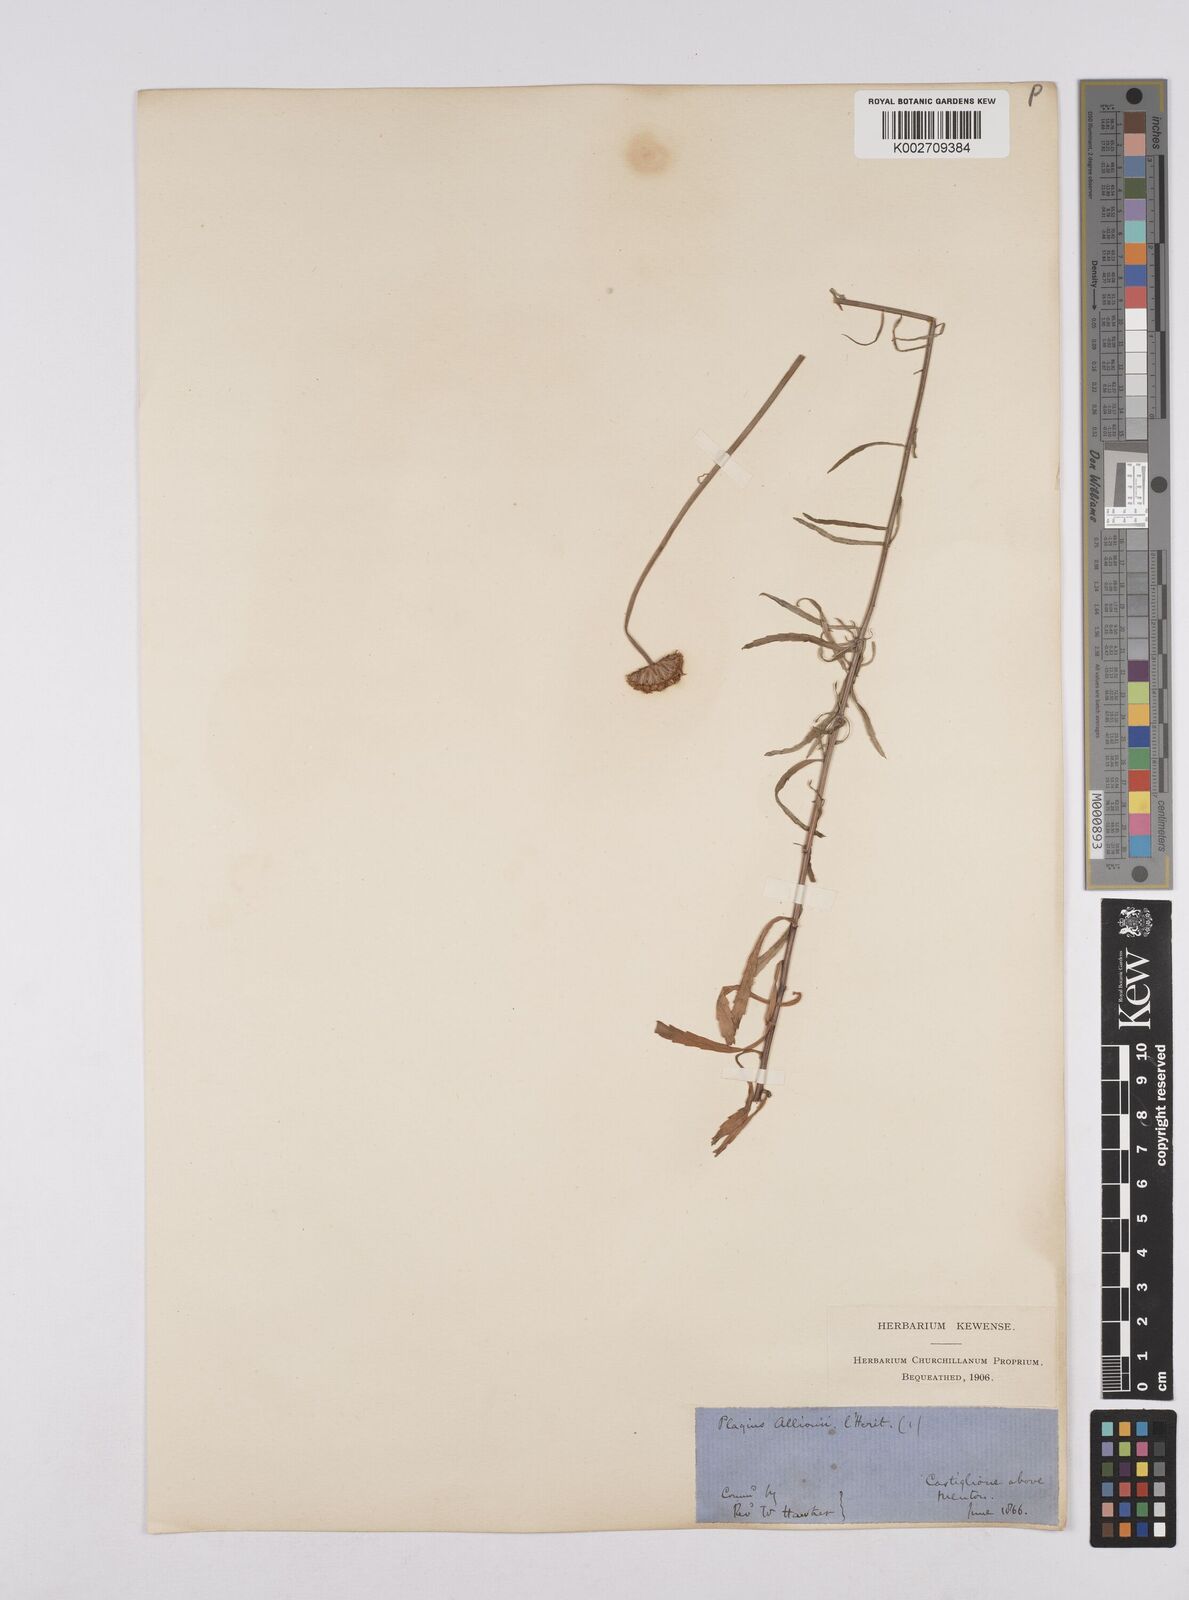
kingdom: Plantae
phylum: Tracheophyta
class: Magnoliopsida
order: Asterales
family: Asteraceae
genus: Leucanthemum
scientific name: Leucanthemum vulgare
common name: Oxeye daisy
